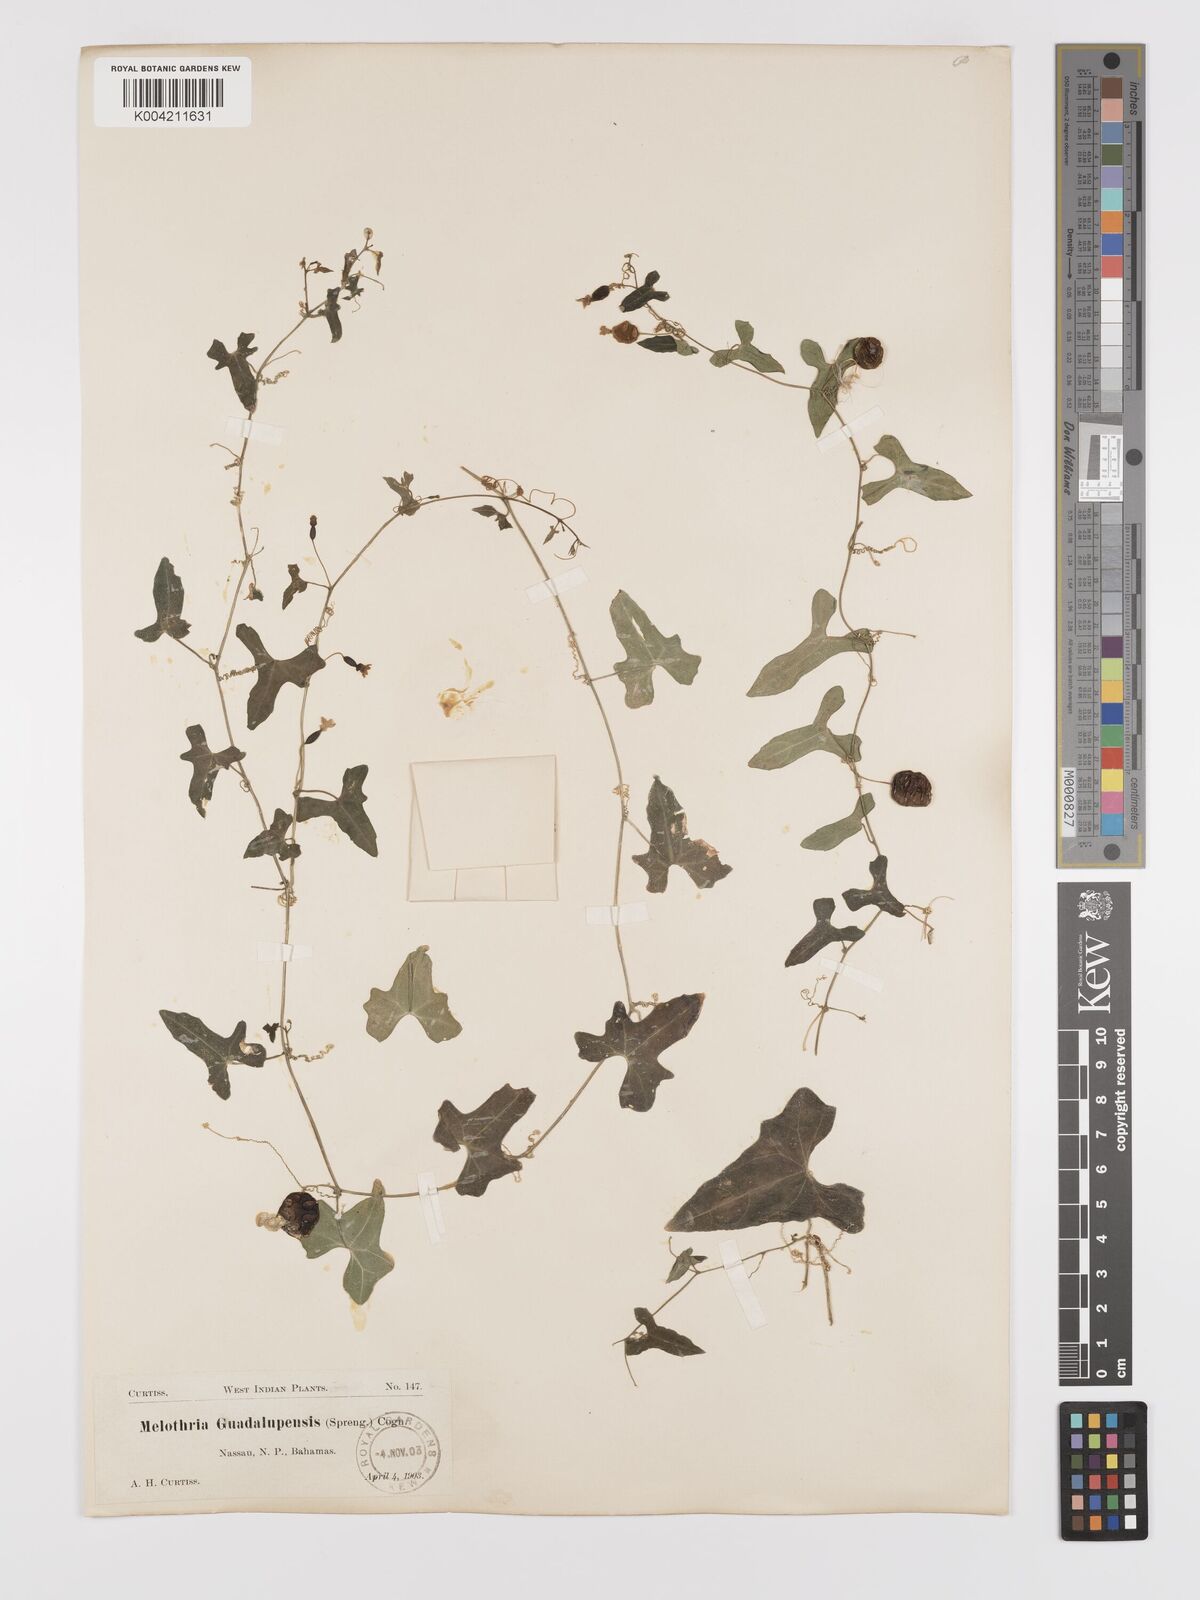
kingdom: Plantae
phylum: Tracheophyta
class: Magnoliopsida
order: Cucurbitales
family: Cucurbitaceae
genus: Melothria
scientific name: Melothria
